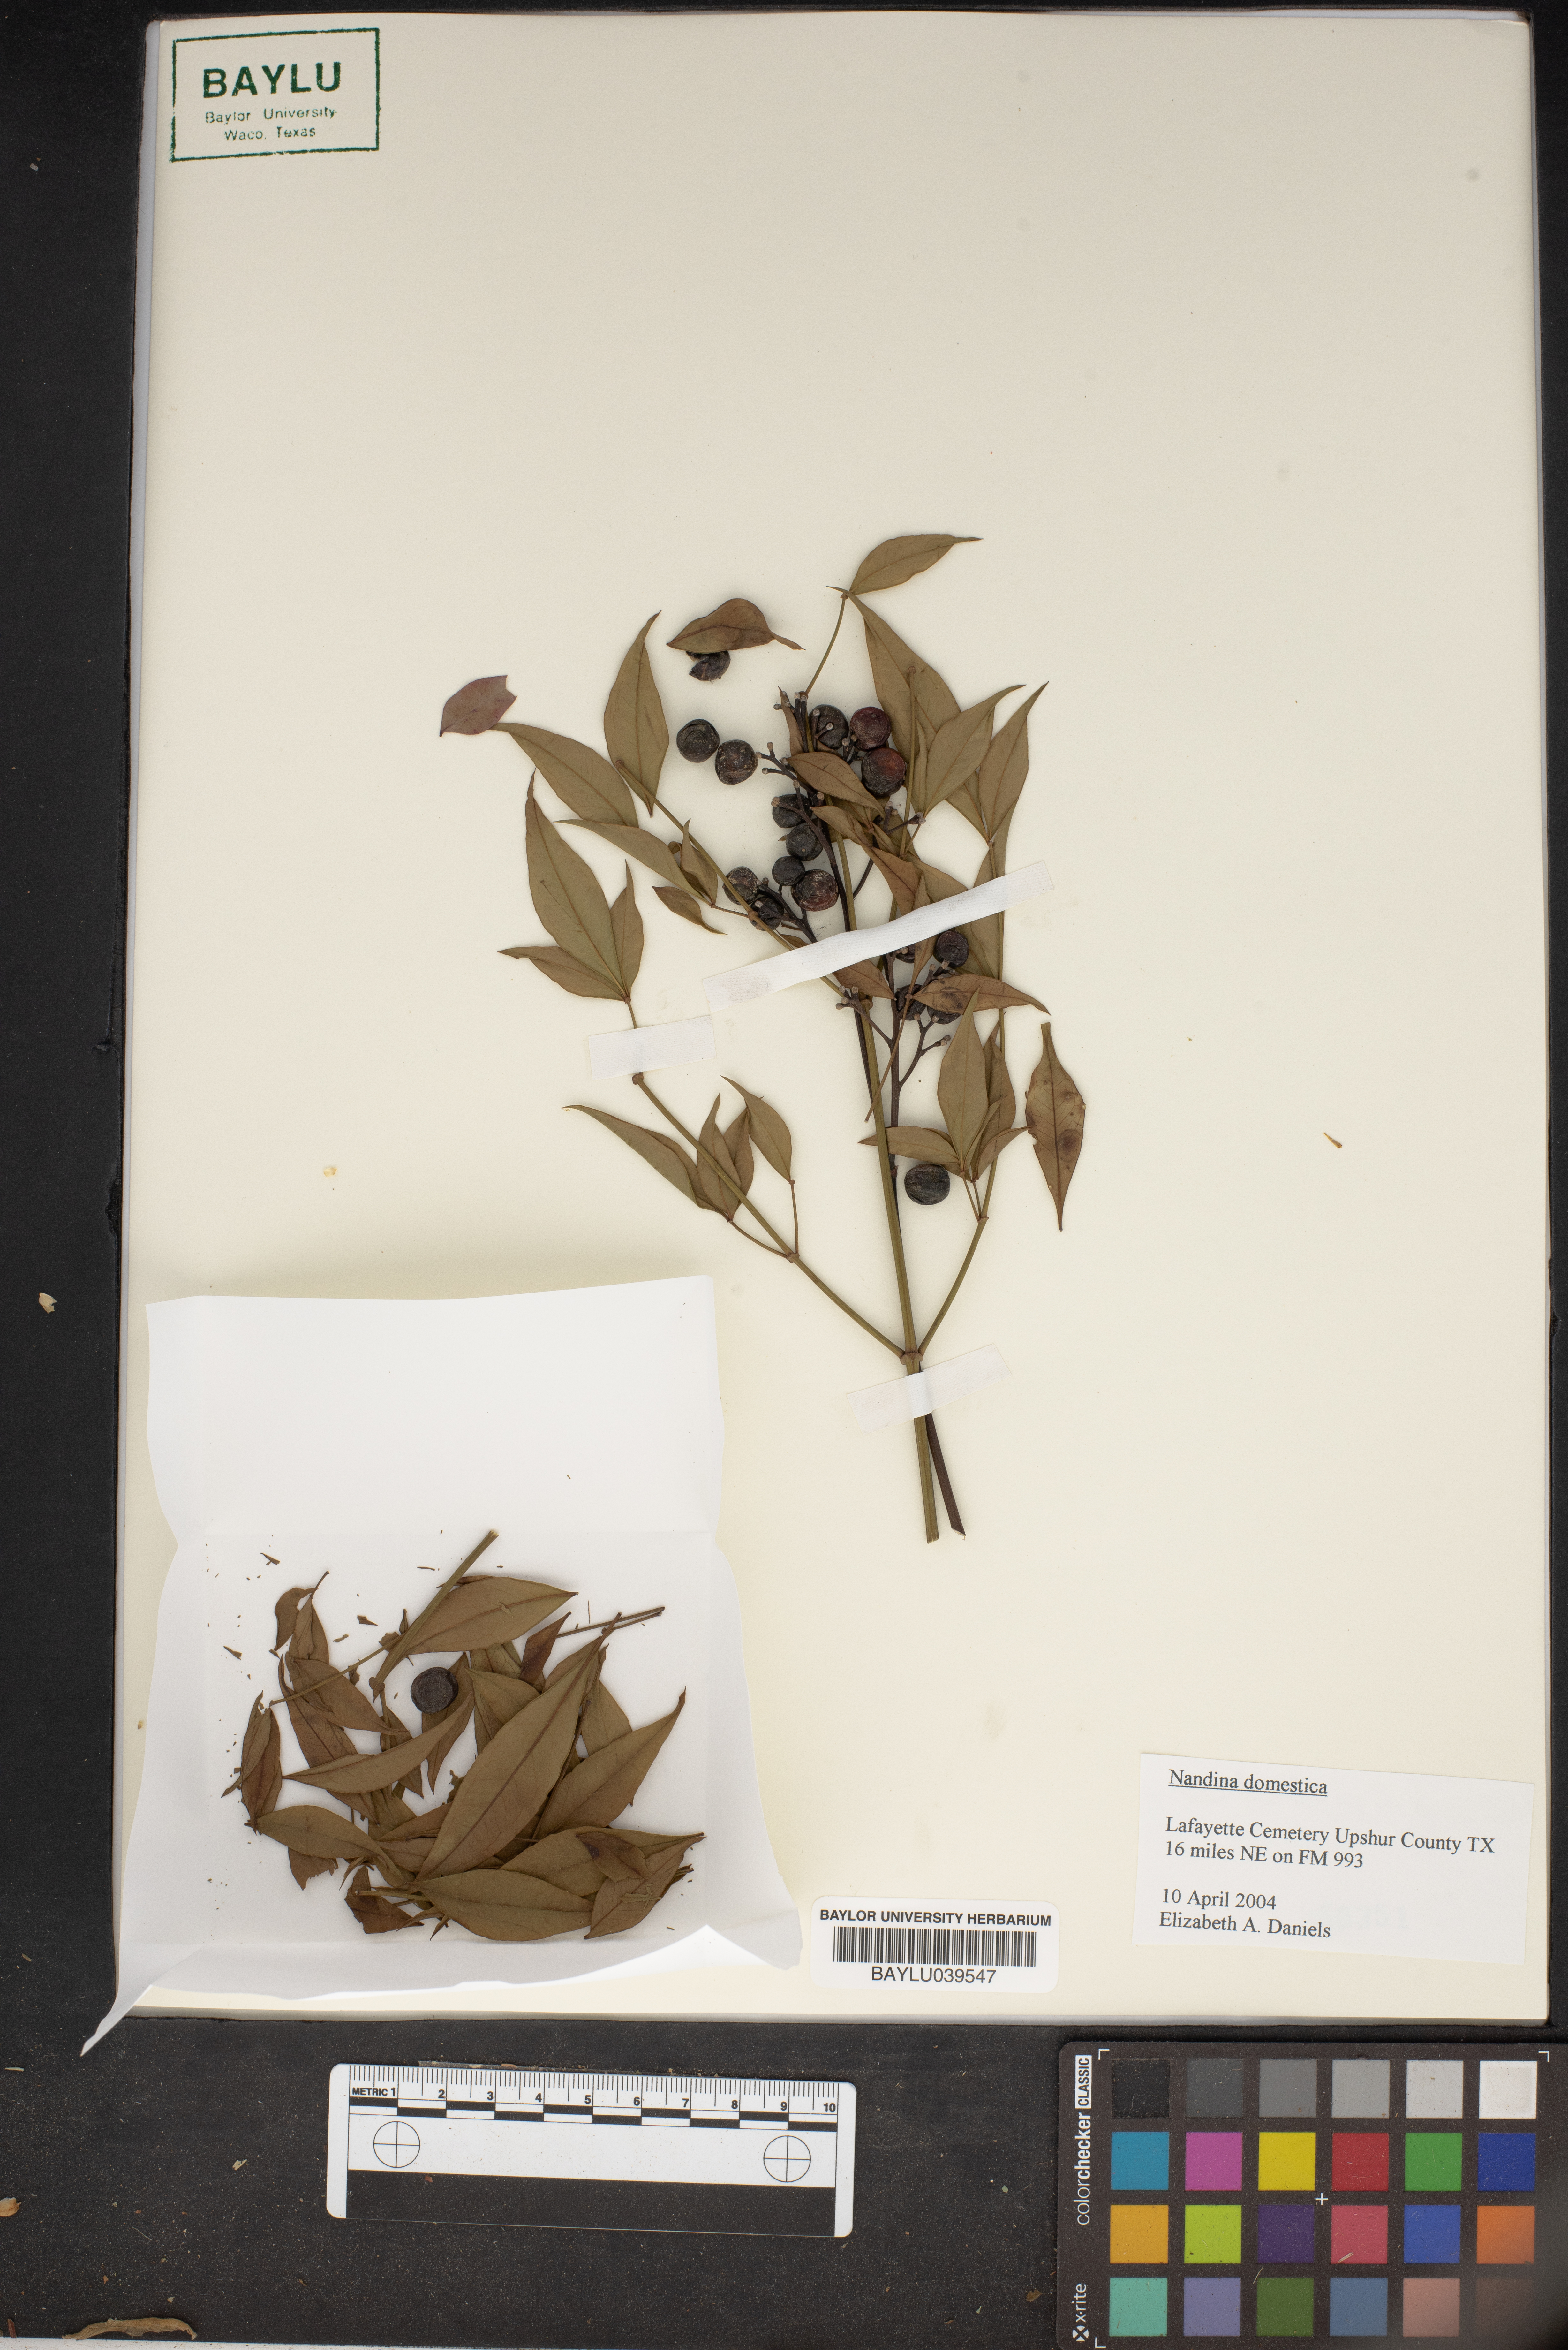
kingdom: Plantae
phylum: Tracheophyta
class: Magnoliopsida
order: Ranunculales
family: Berberidaceae
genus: Nandina
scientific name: Nandina domestica
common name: Sacred bamboo
